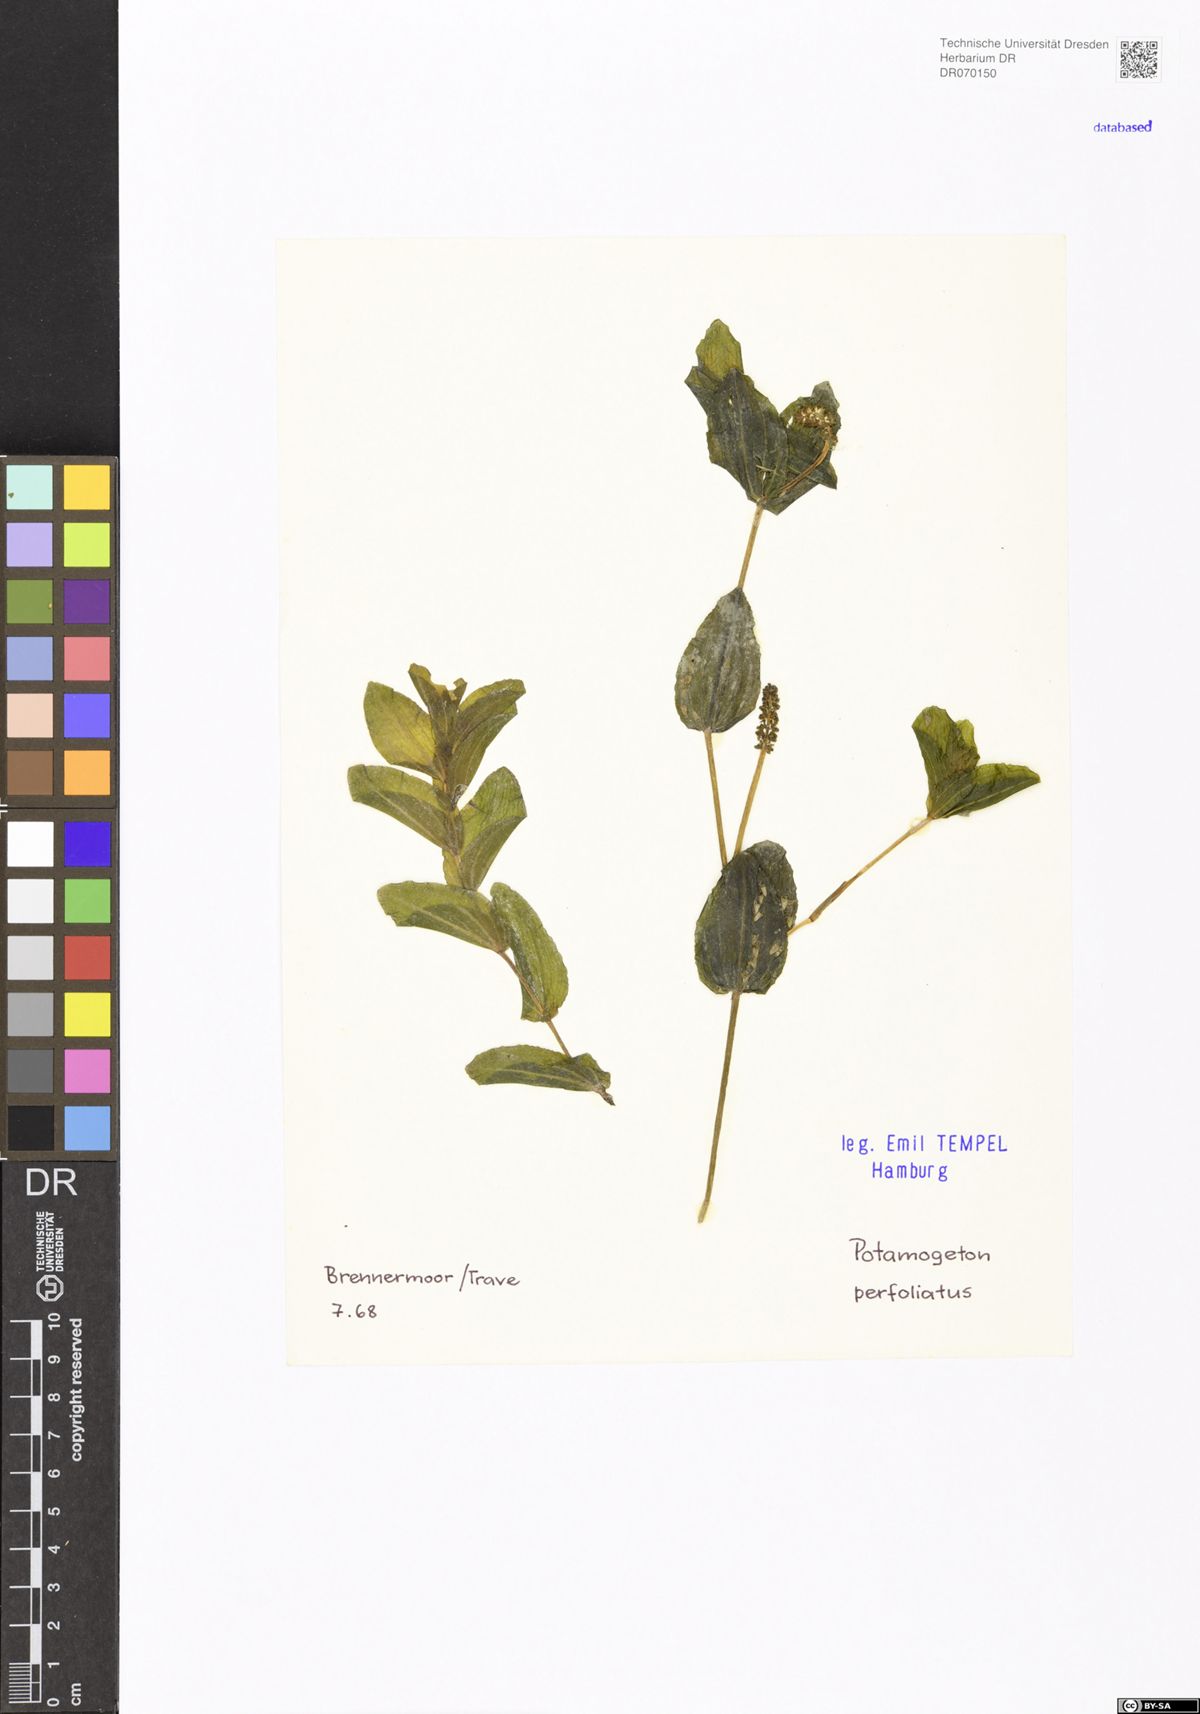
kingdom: Plantae
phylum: Tracheophyta
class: Liliopsida
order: Alismatales
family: Potamogetonaceae
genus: Potamogeton
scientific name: Potamogeton perfoliatus
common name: Perfoliate pondweed
